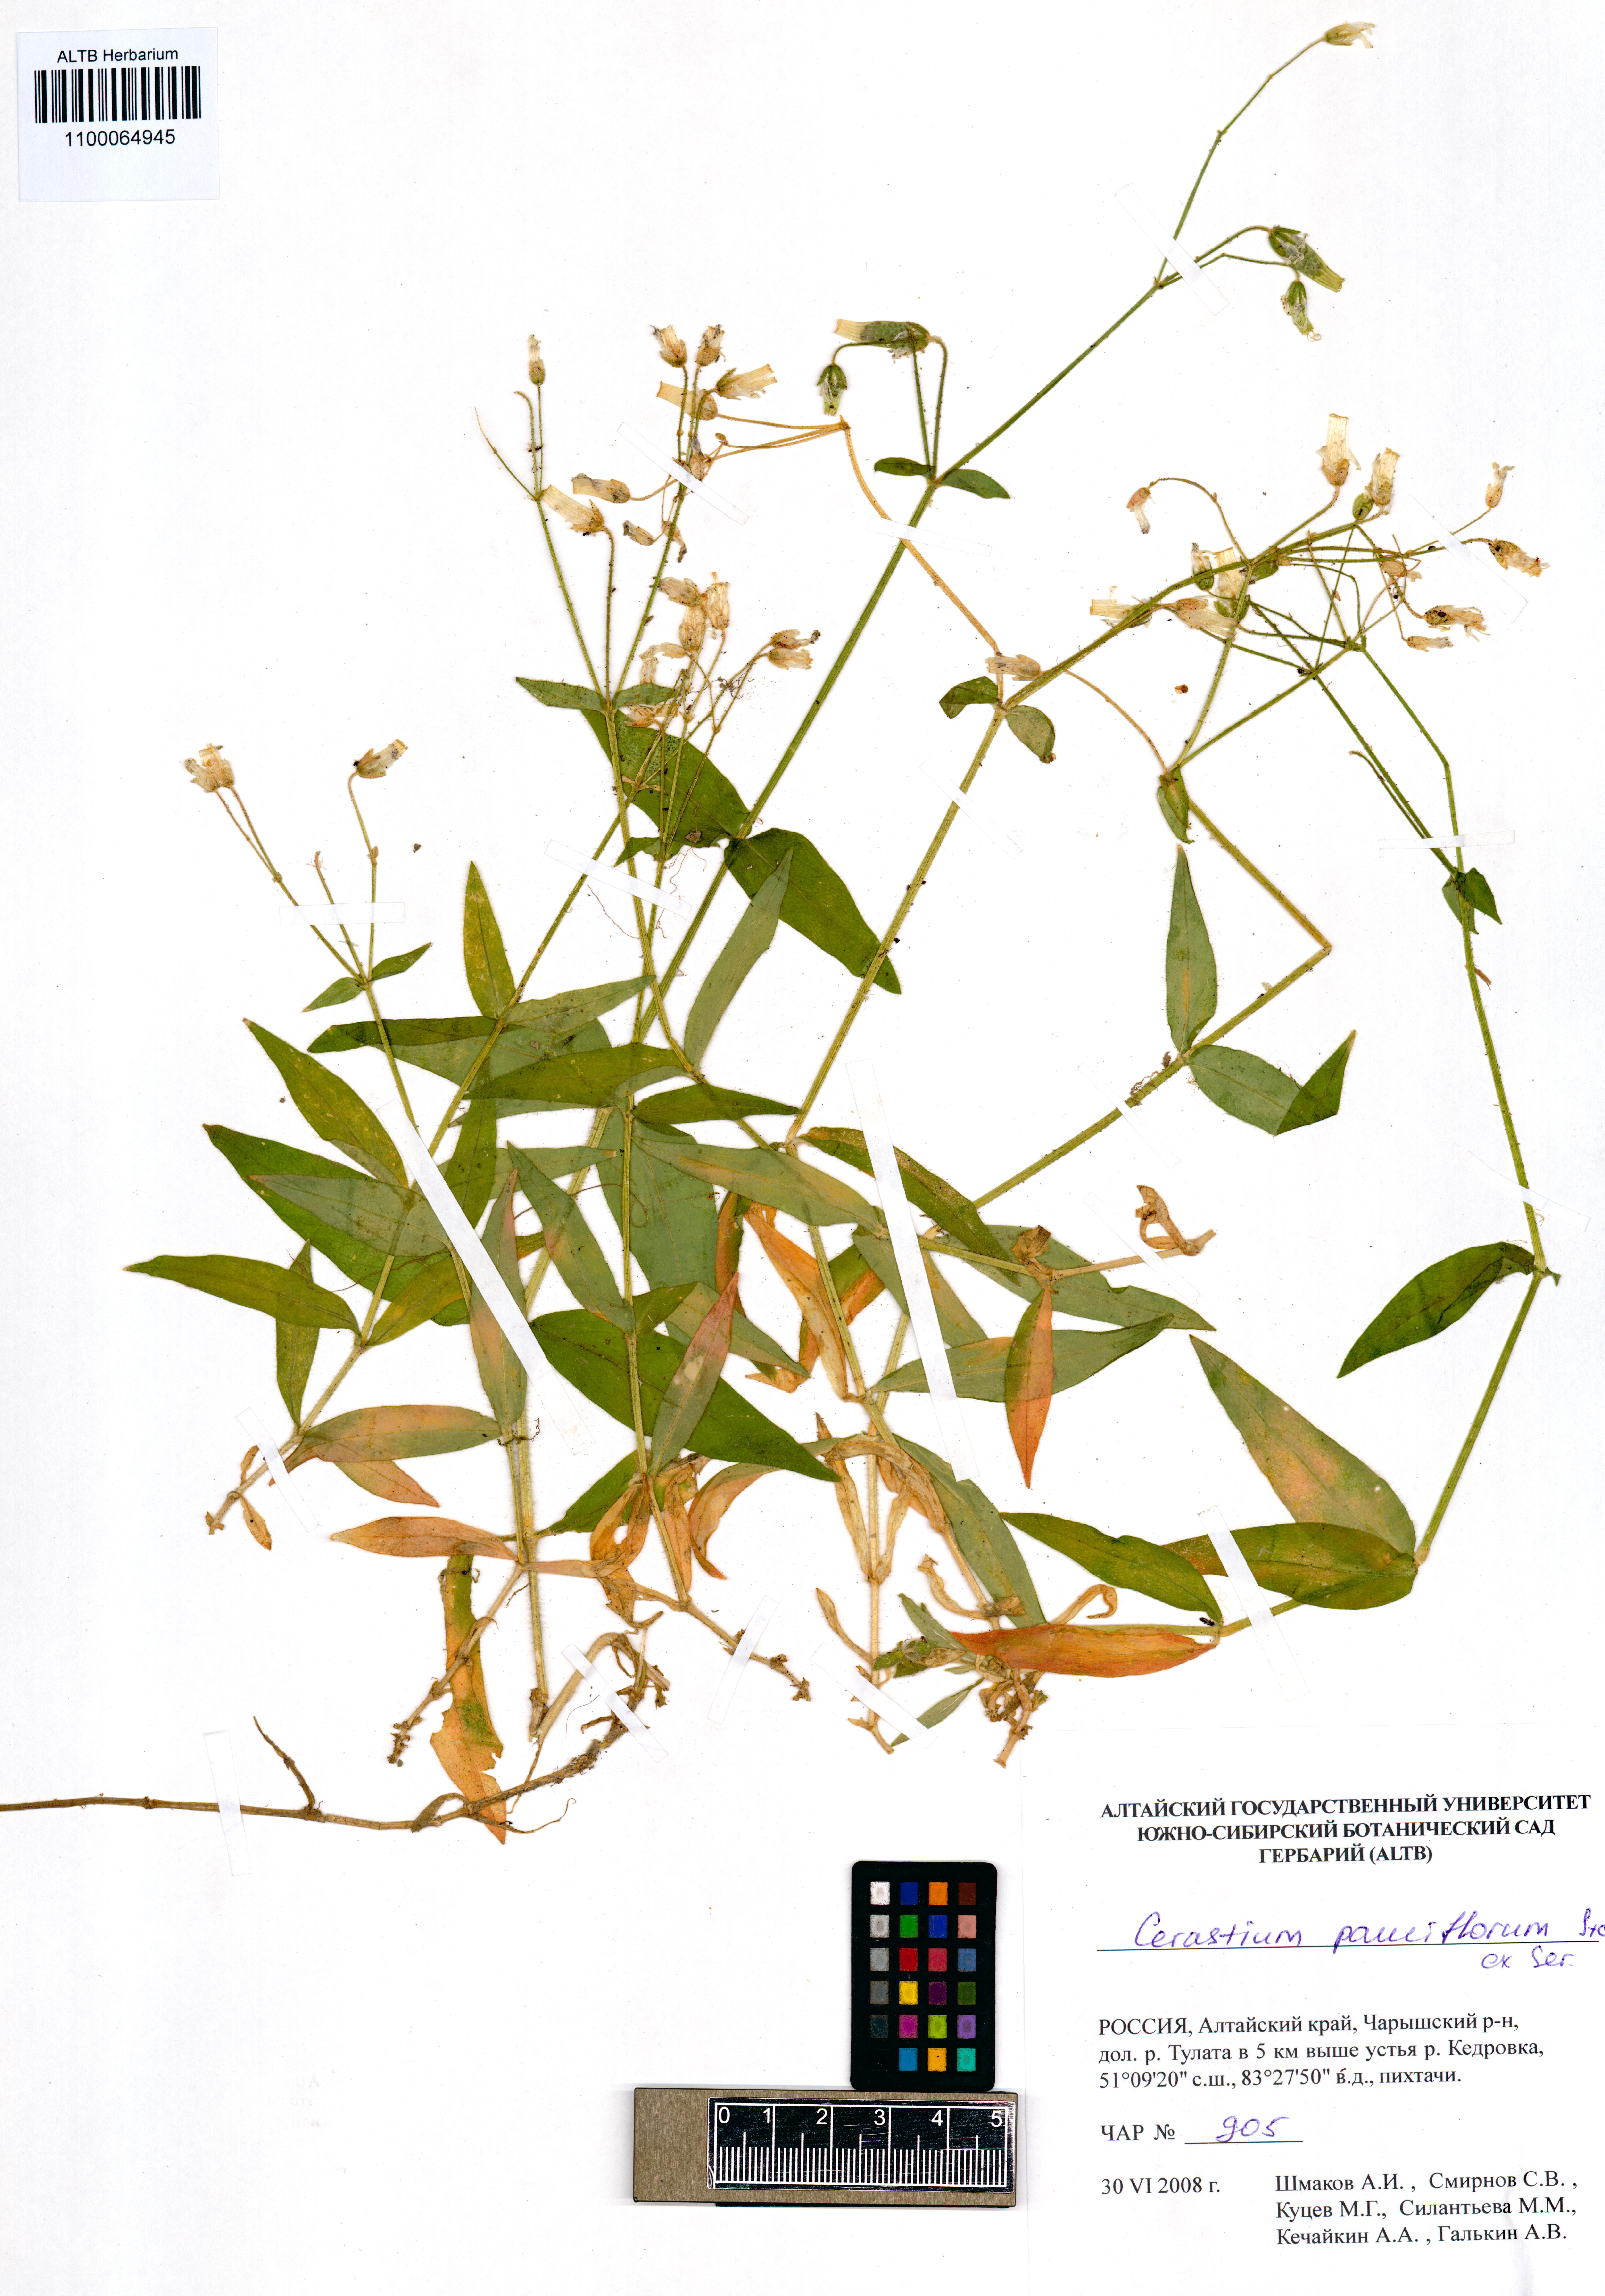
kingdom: Plantae
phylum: Tracheophyta
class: Magnoliopsida
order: Caryophyllales
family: Caryophyllaceae
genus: Cerastium
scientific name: Cerastium pauciflorum
